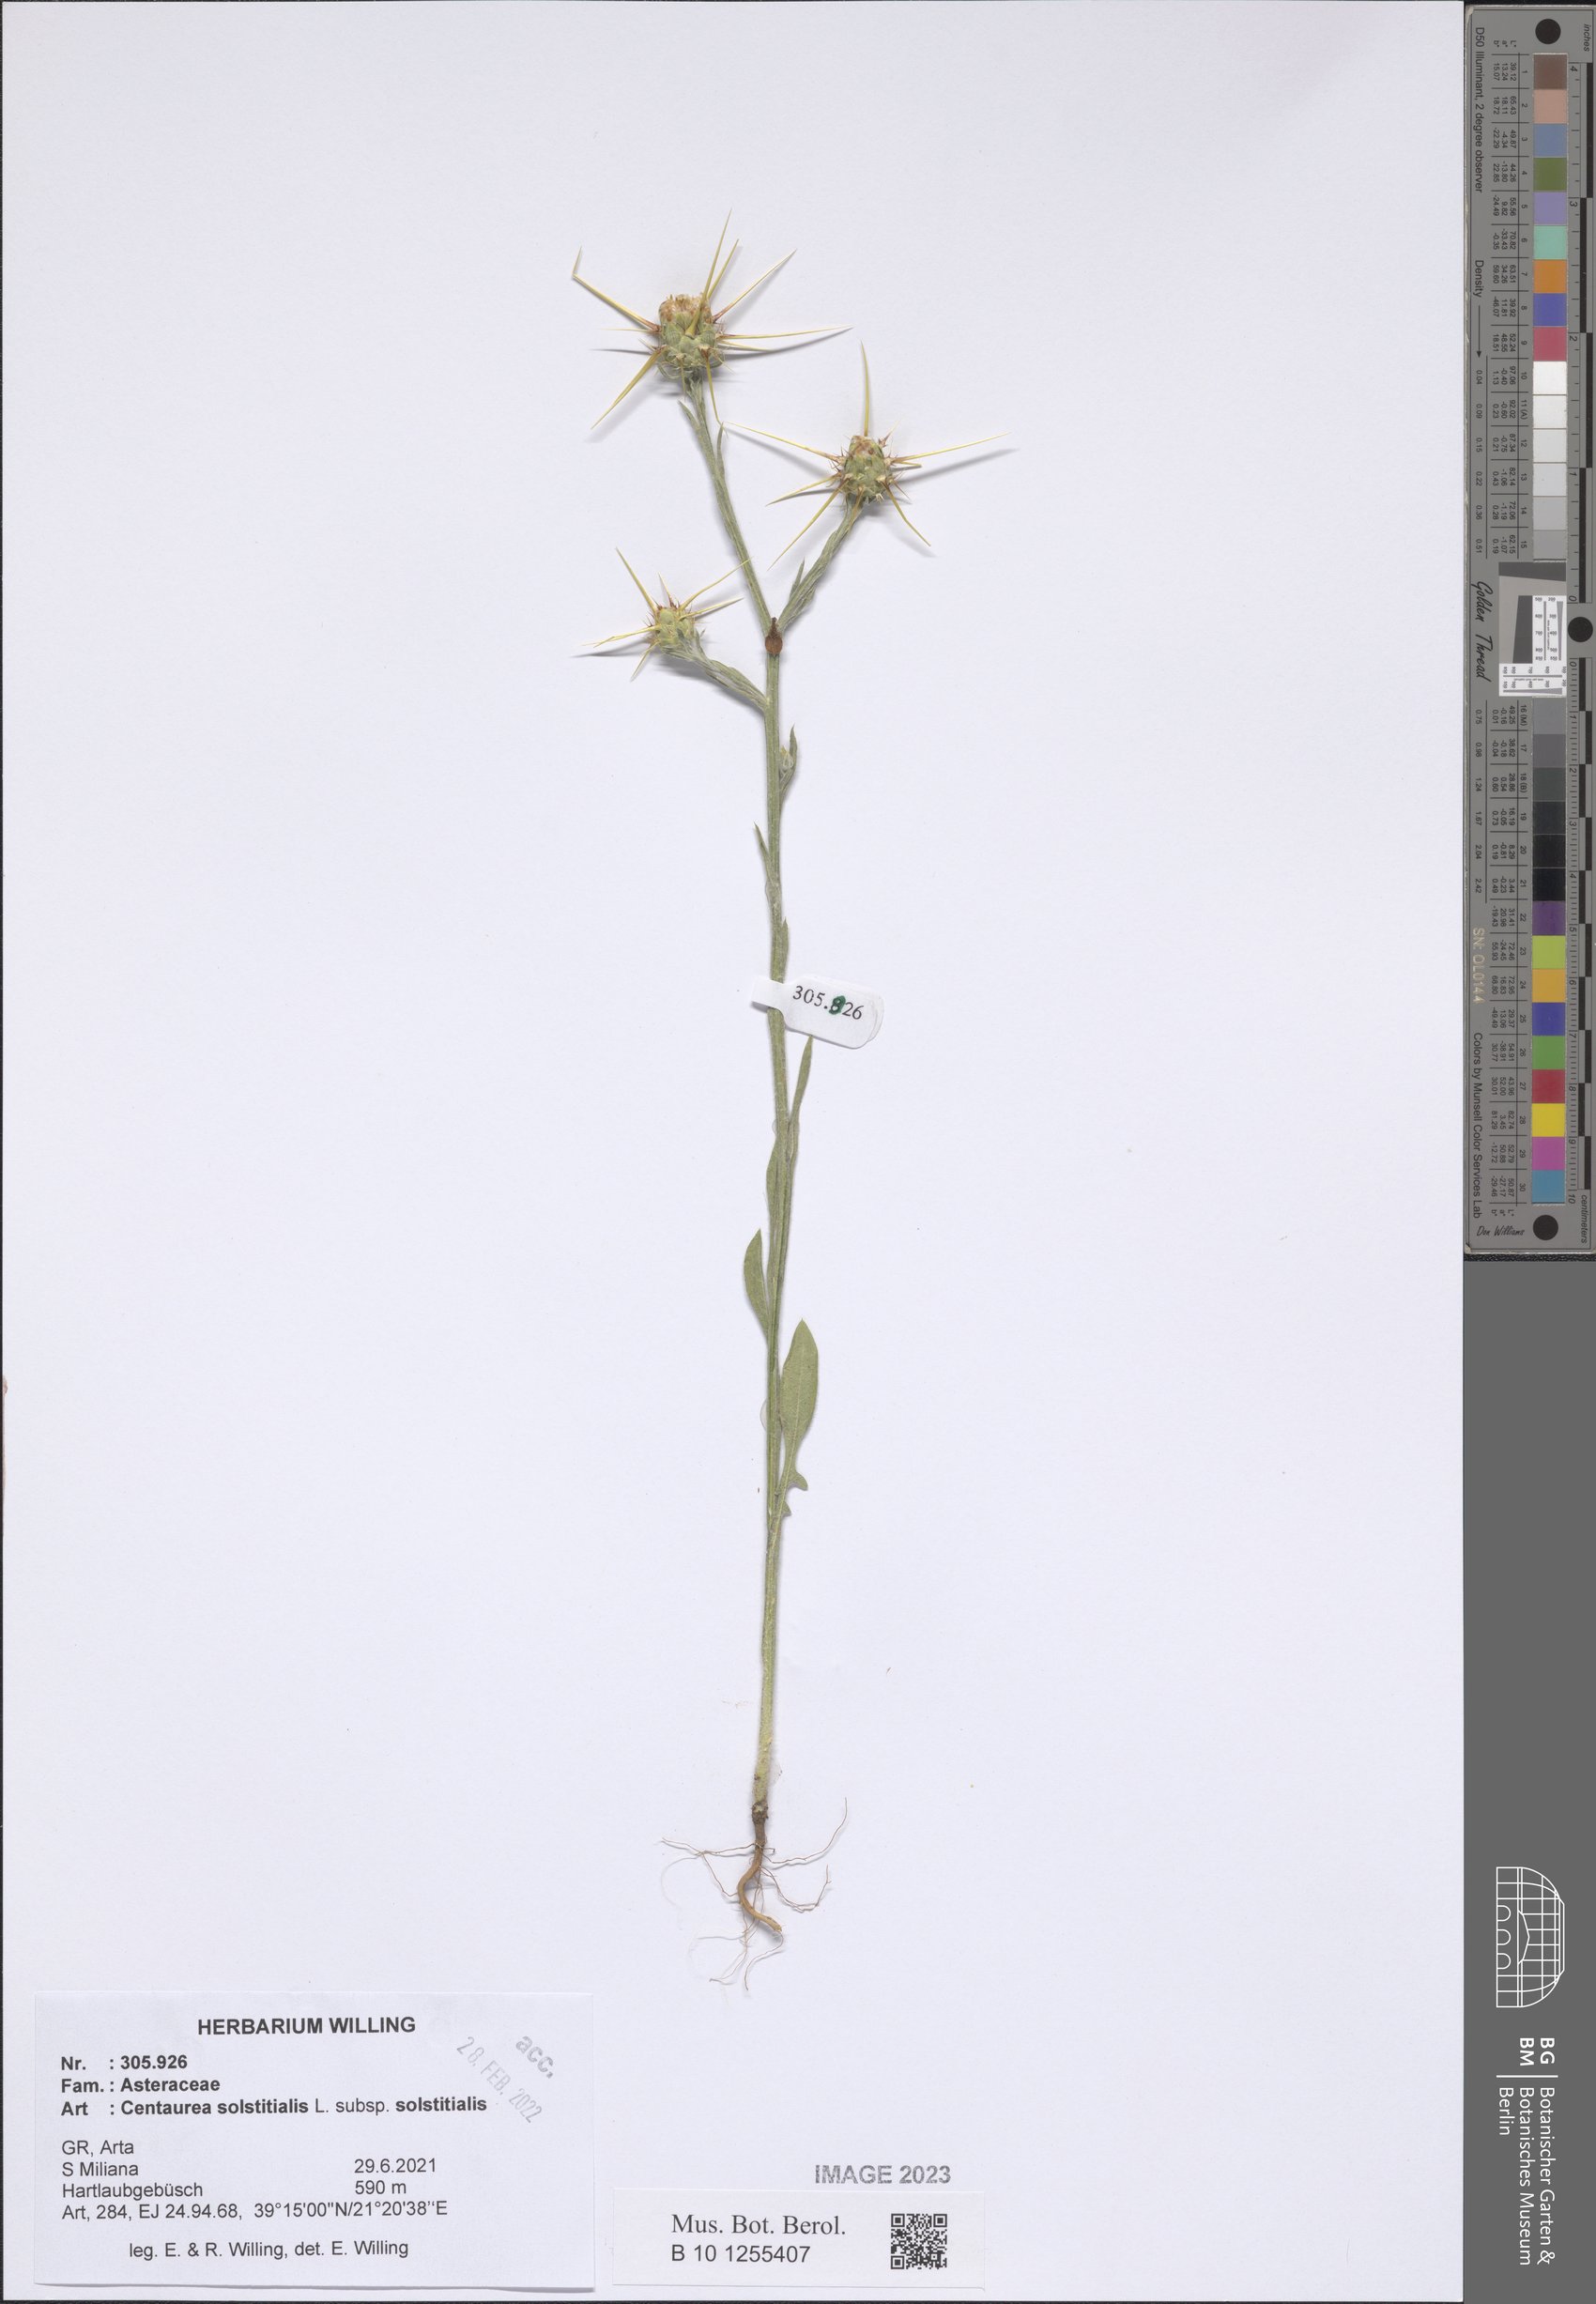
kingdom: Plantae
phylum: Tracheophyta
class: Magnoliopsida
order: Asterales
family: Asteraceae
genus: Centaurea
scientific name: Centaurea solstitialis
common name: Yellow star-thistle
